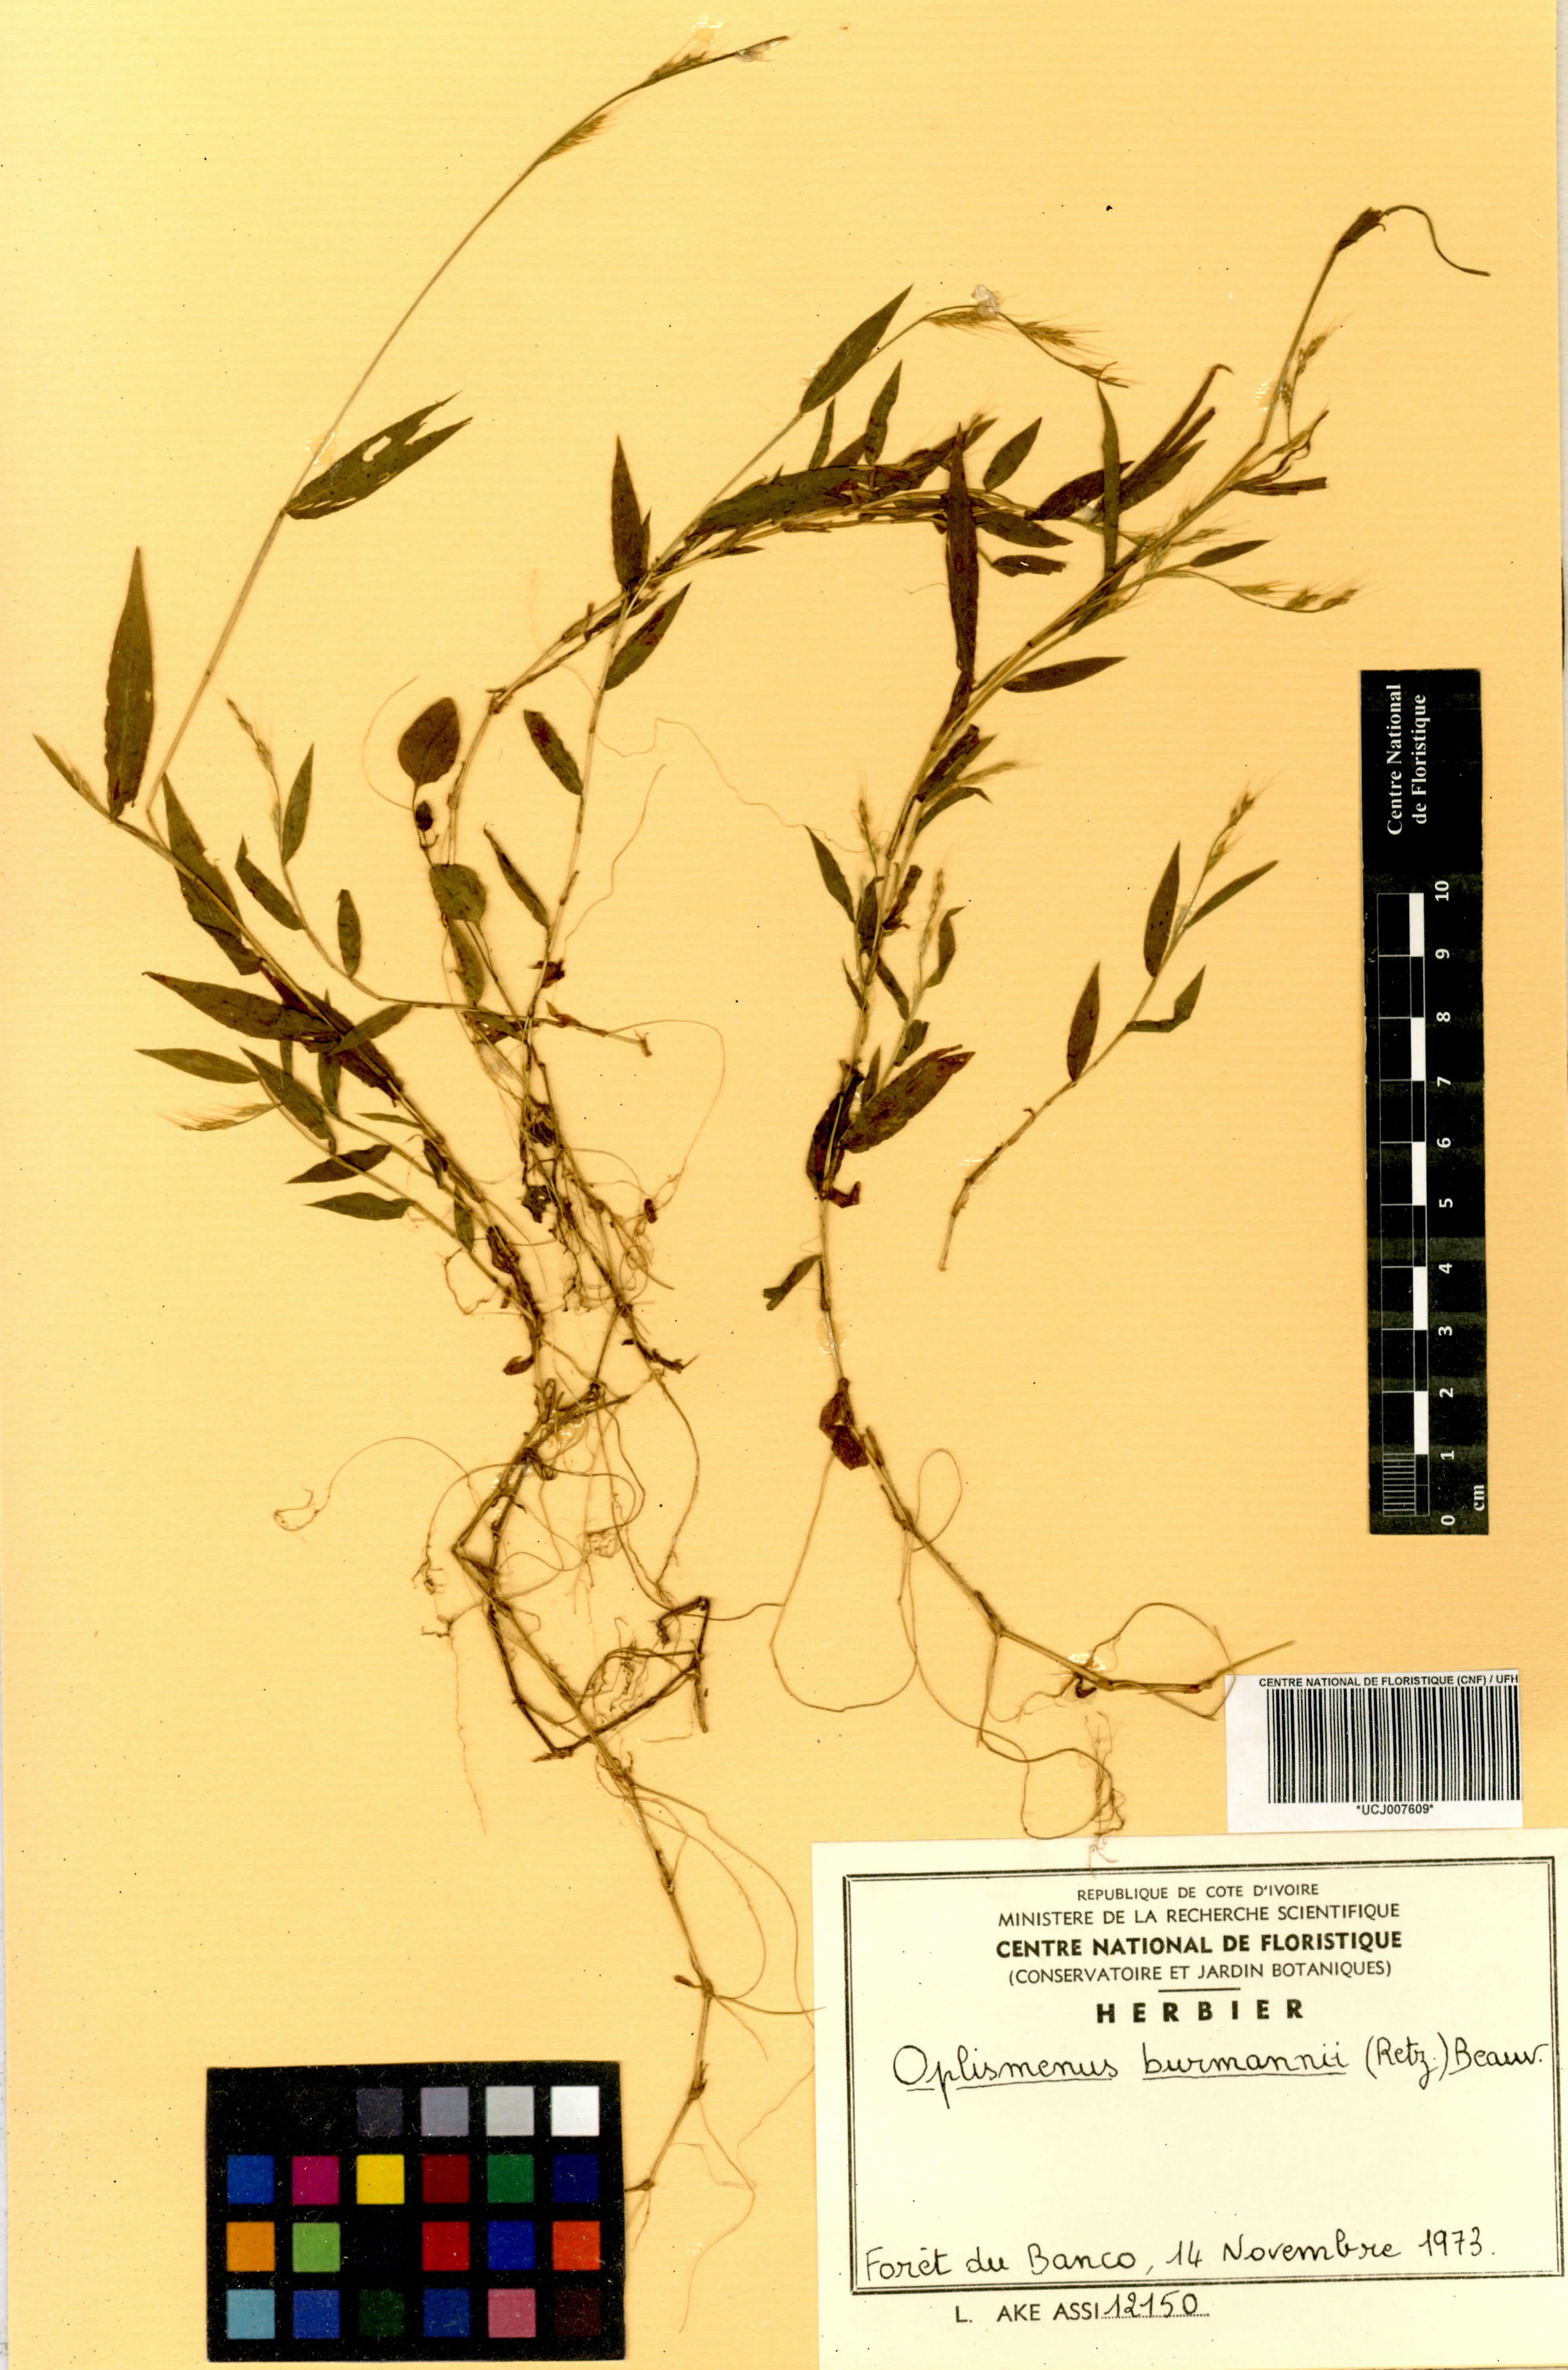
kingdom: Plantae
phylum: Tracheophyta
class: Liliopsida
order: Poales
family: Poaceae
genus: Oplismenus
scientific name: Oplismenus burmanni
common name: Burmann's basketgrass
